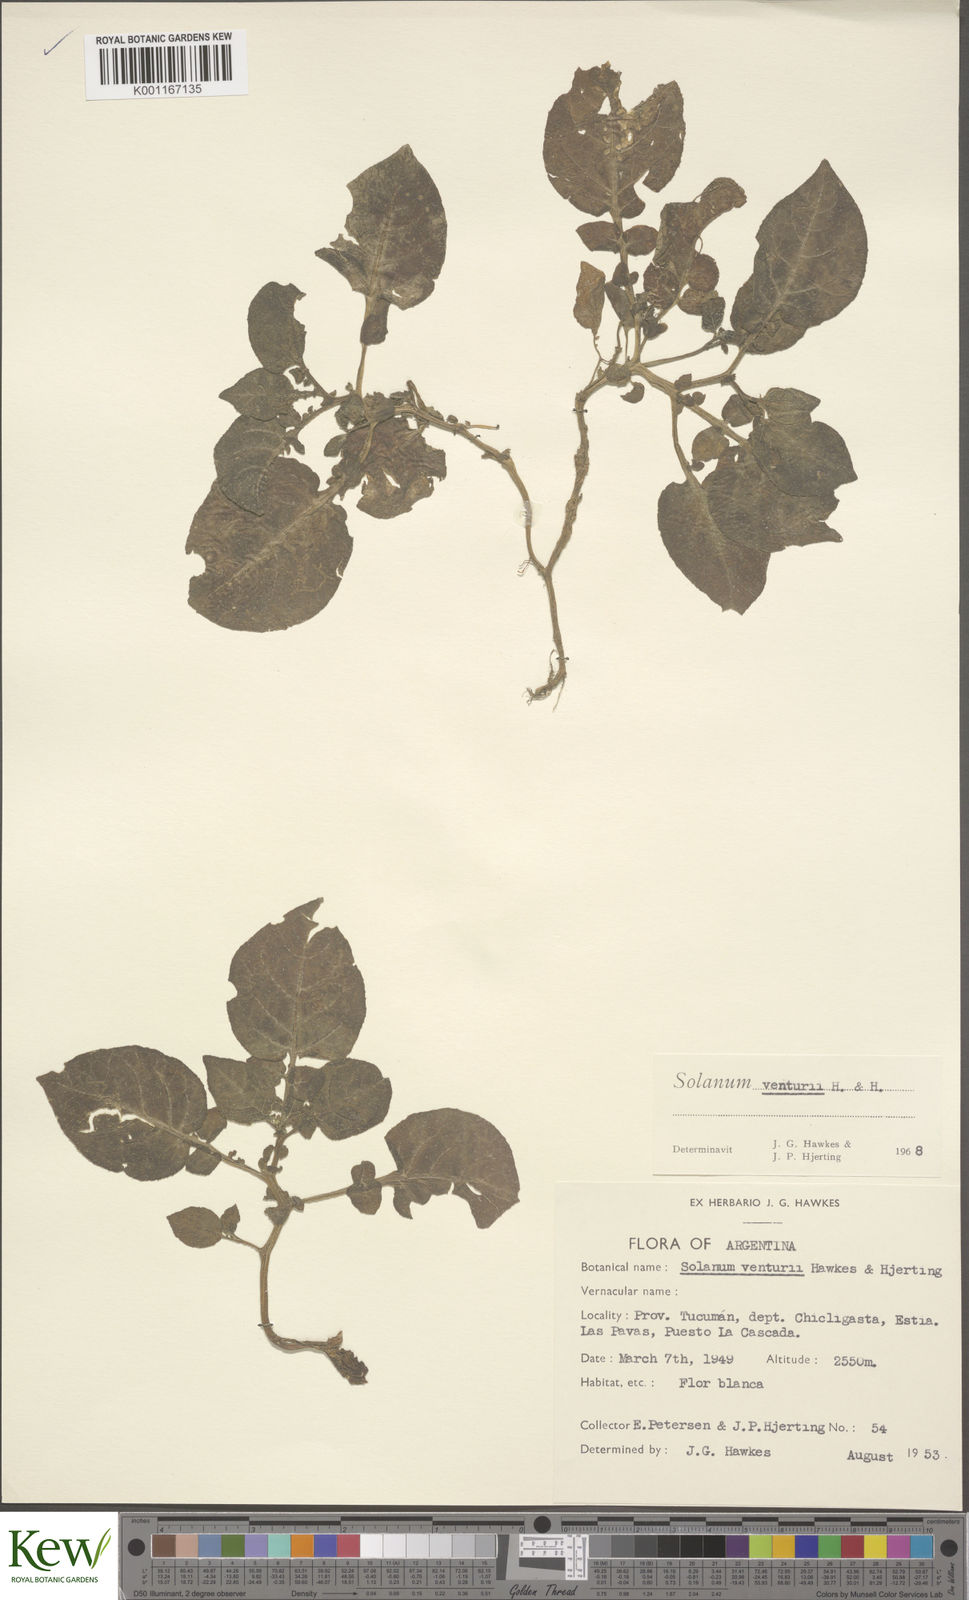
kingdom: Plantae
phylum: Tracheophyta
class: Magnoliopsida
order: Solanales
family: Solanaceae
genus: Solanum
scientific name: Solanum venturii
